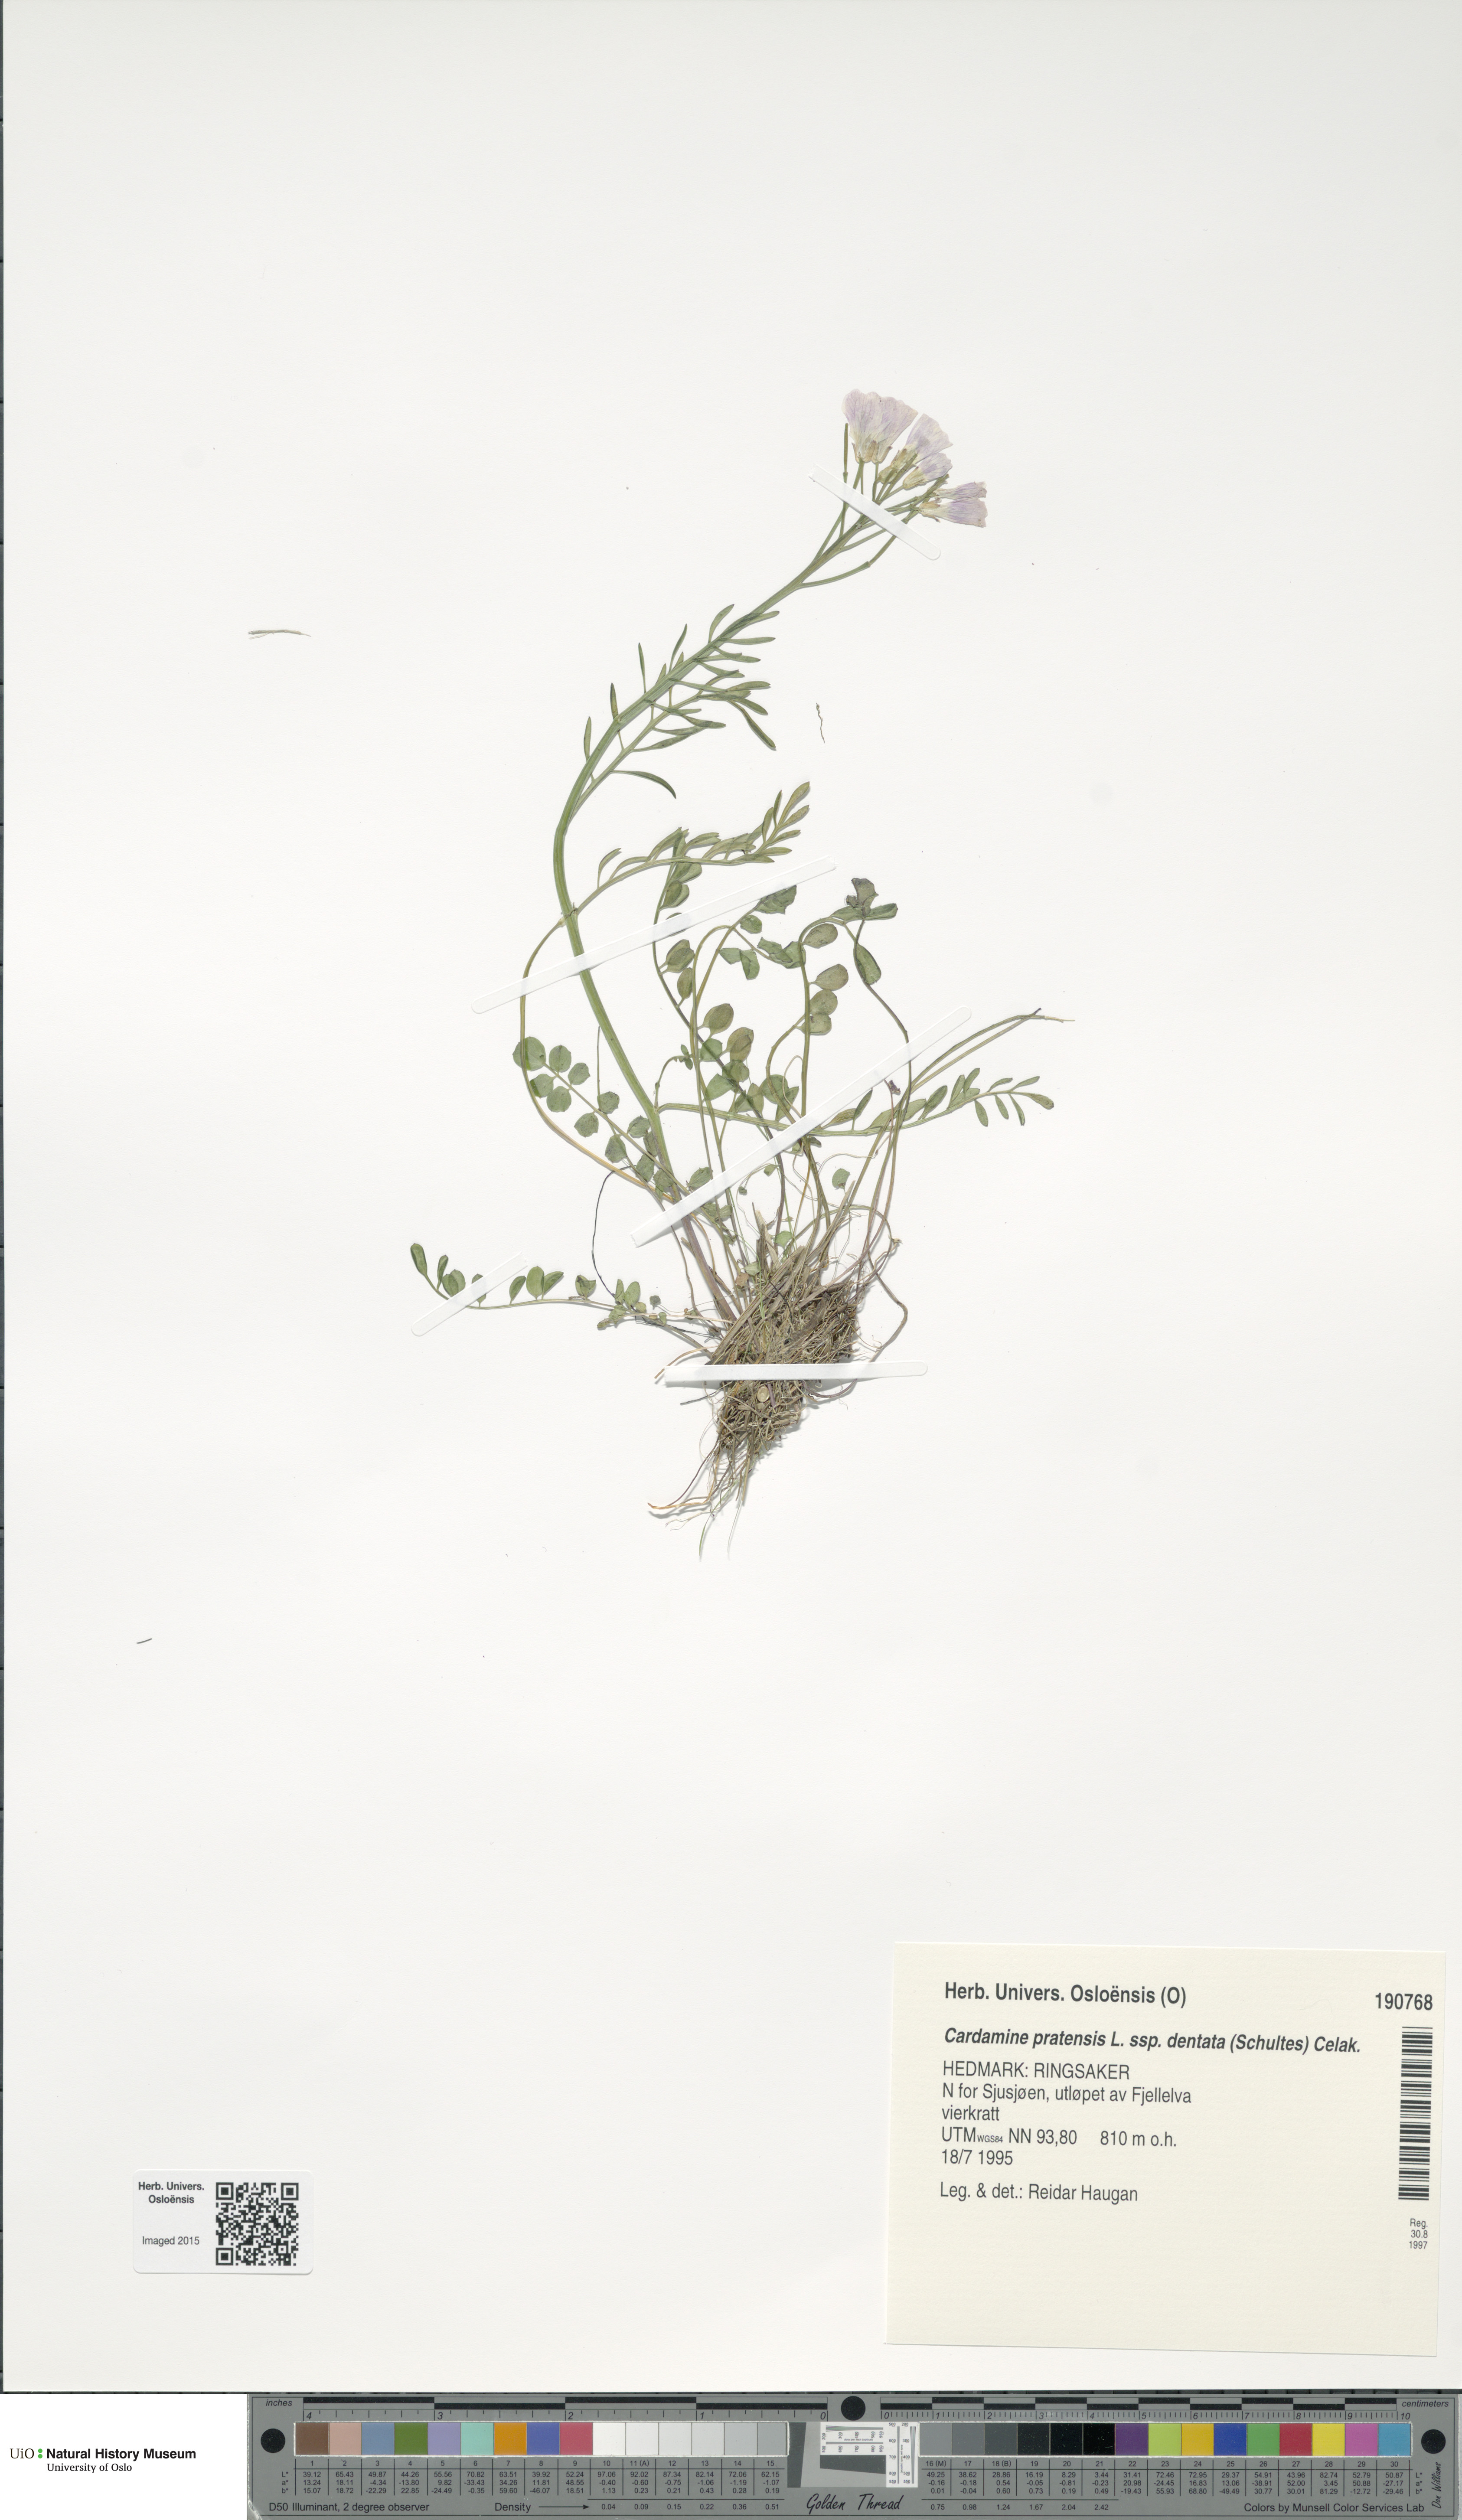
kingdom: Plantae
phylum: Tracheophyta
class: Magnoliopsida
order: Brassicales
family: Brassicaceae
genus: Cardamine
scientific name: Cardamine dentata
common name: Toothed bittercress
